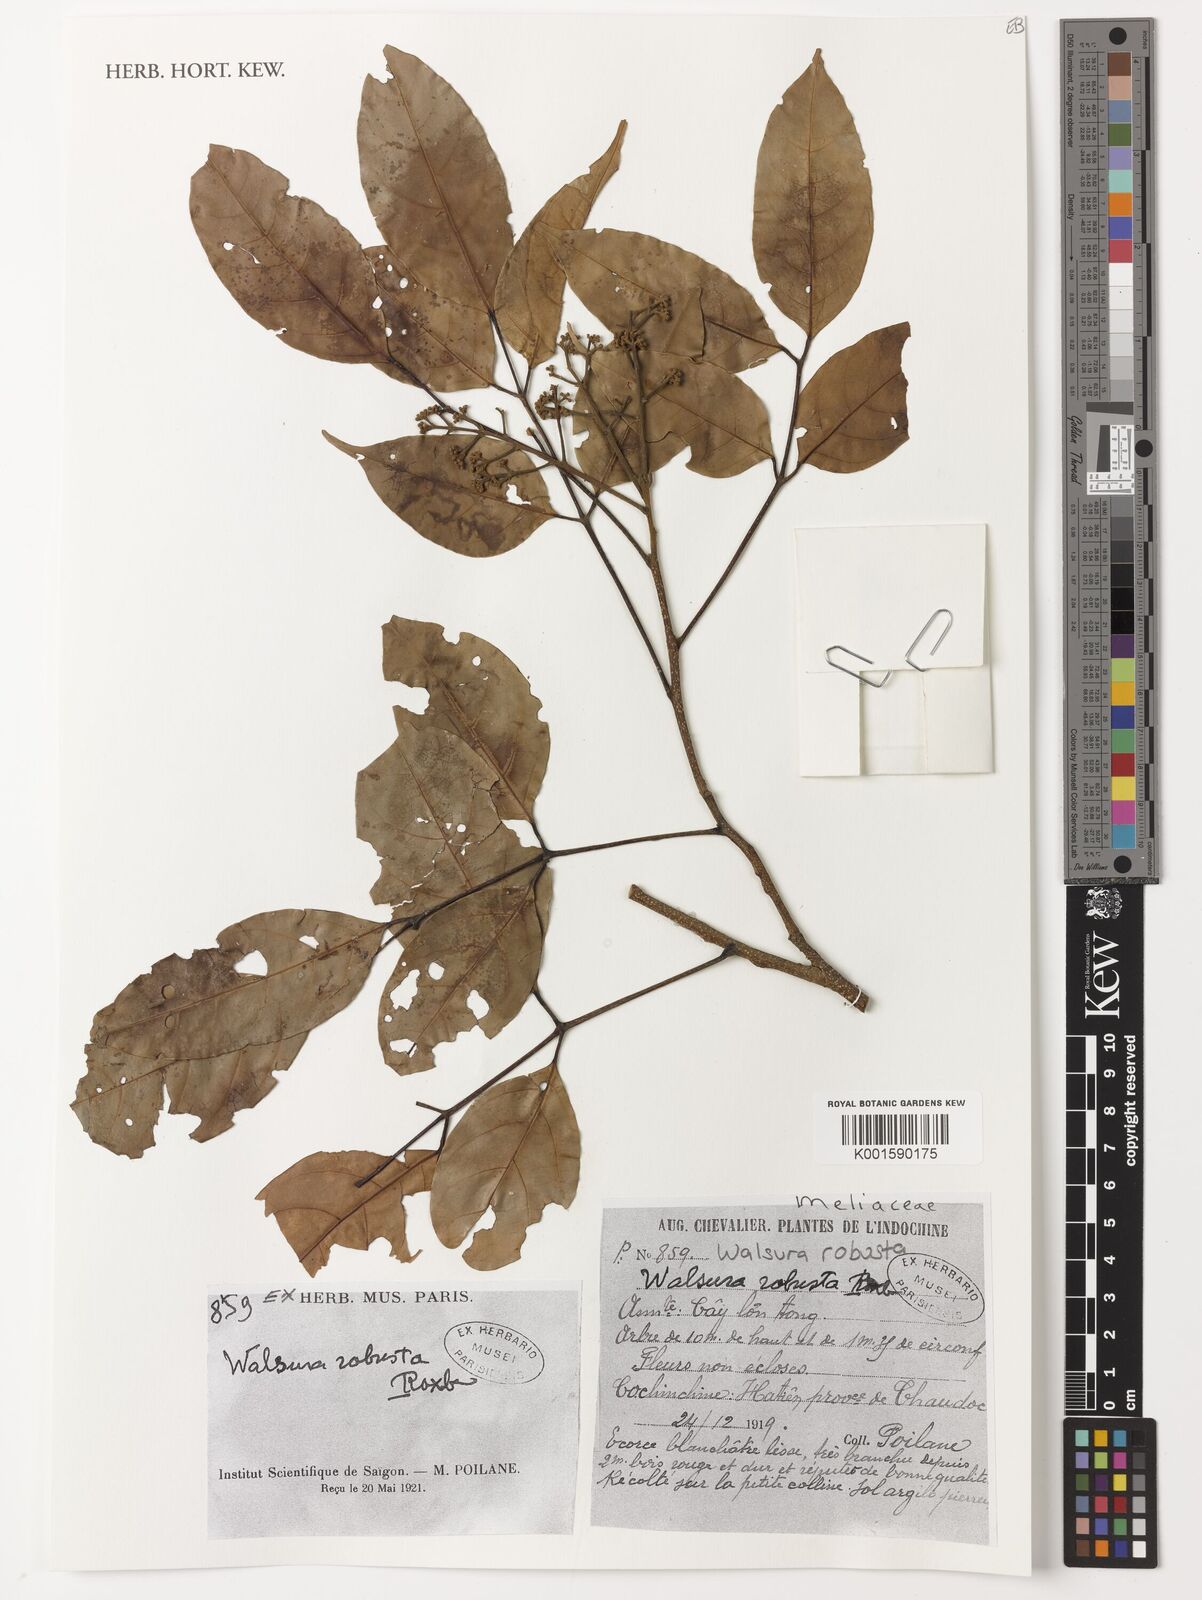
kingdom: Plantae
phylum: Tracheophyta
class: Magnoliopsida
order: Sapindales
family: Meliaceae
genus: Walsura
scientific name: Walsura robusta
